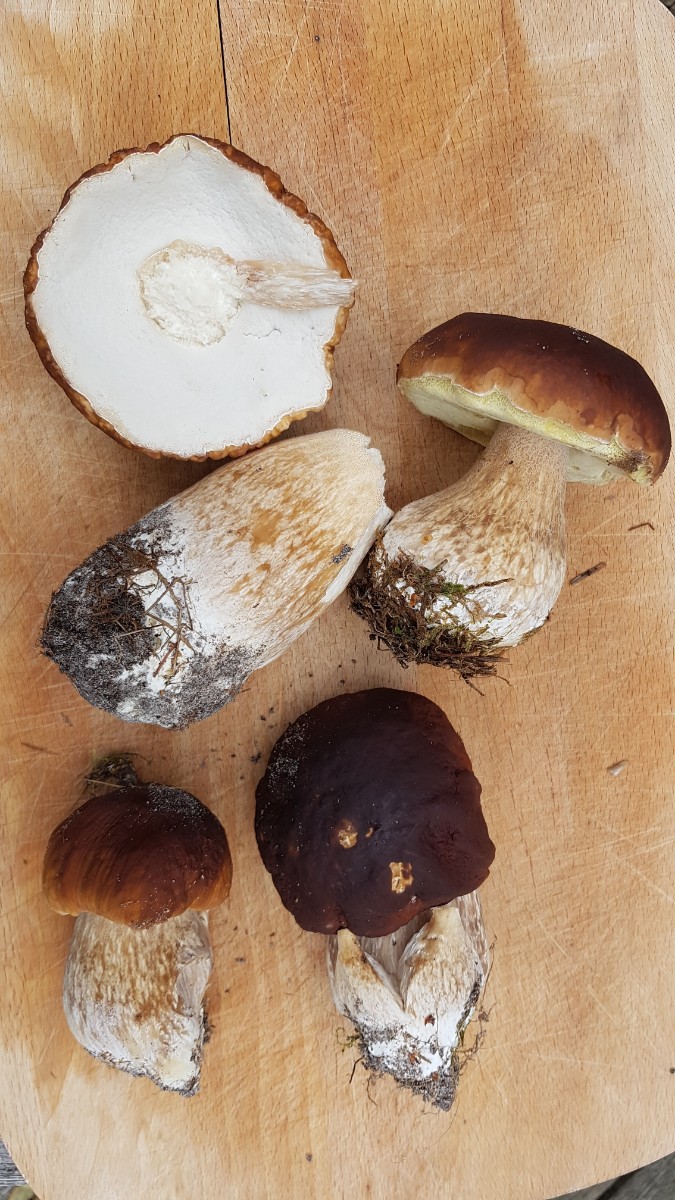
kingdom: Fungi
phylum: Basidiomycota
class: Agaricomycetes
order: Boletales
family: Boletaceae
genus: Boletus
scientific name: Boletus edulis
